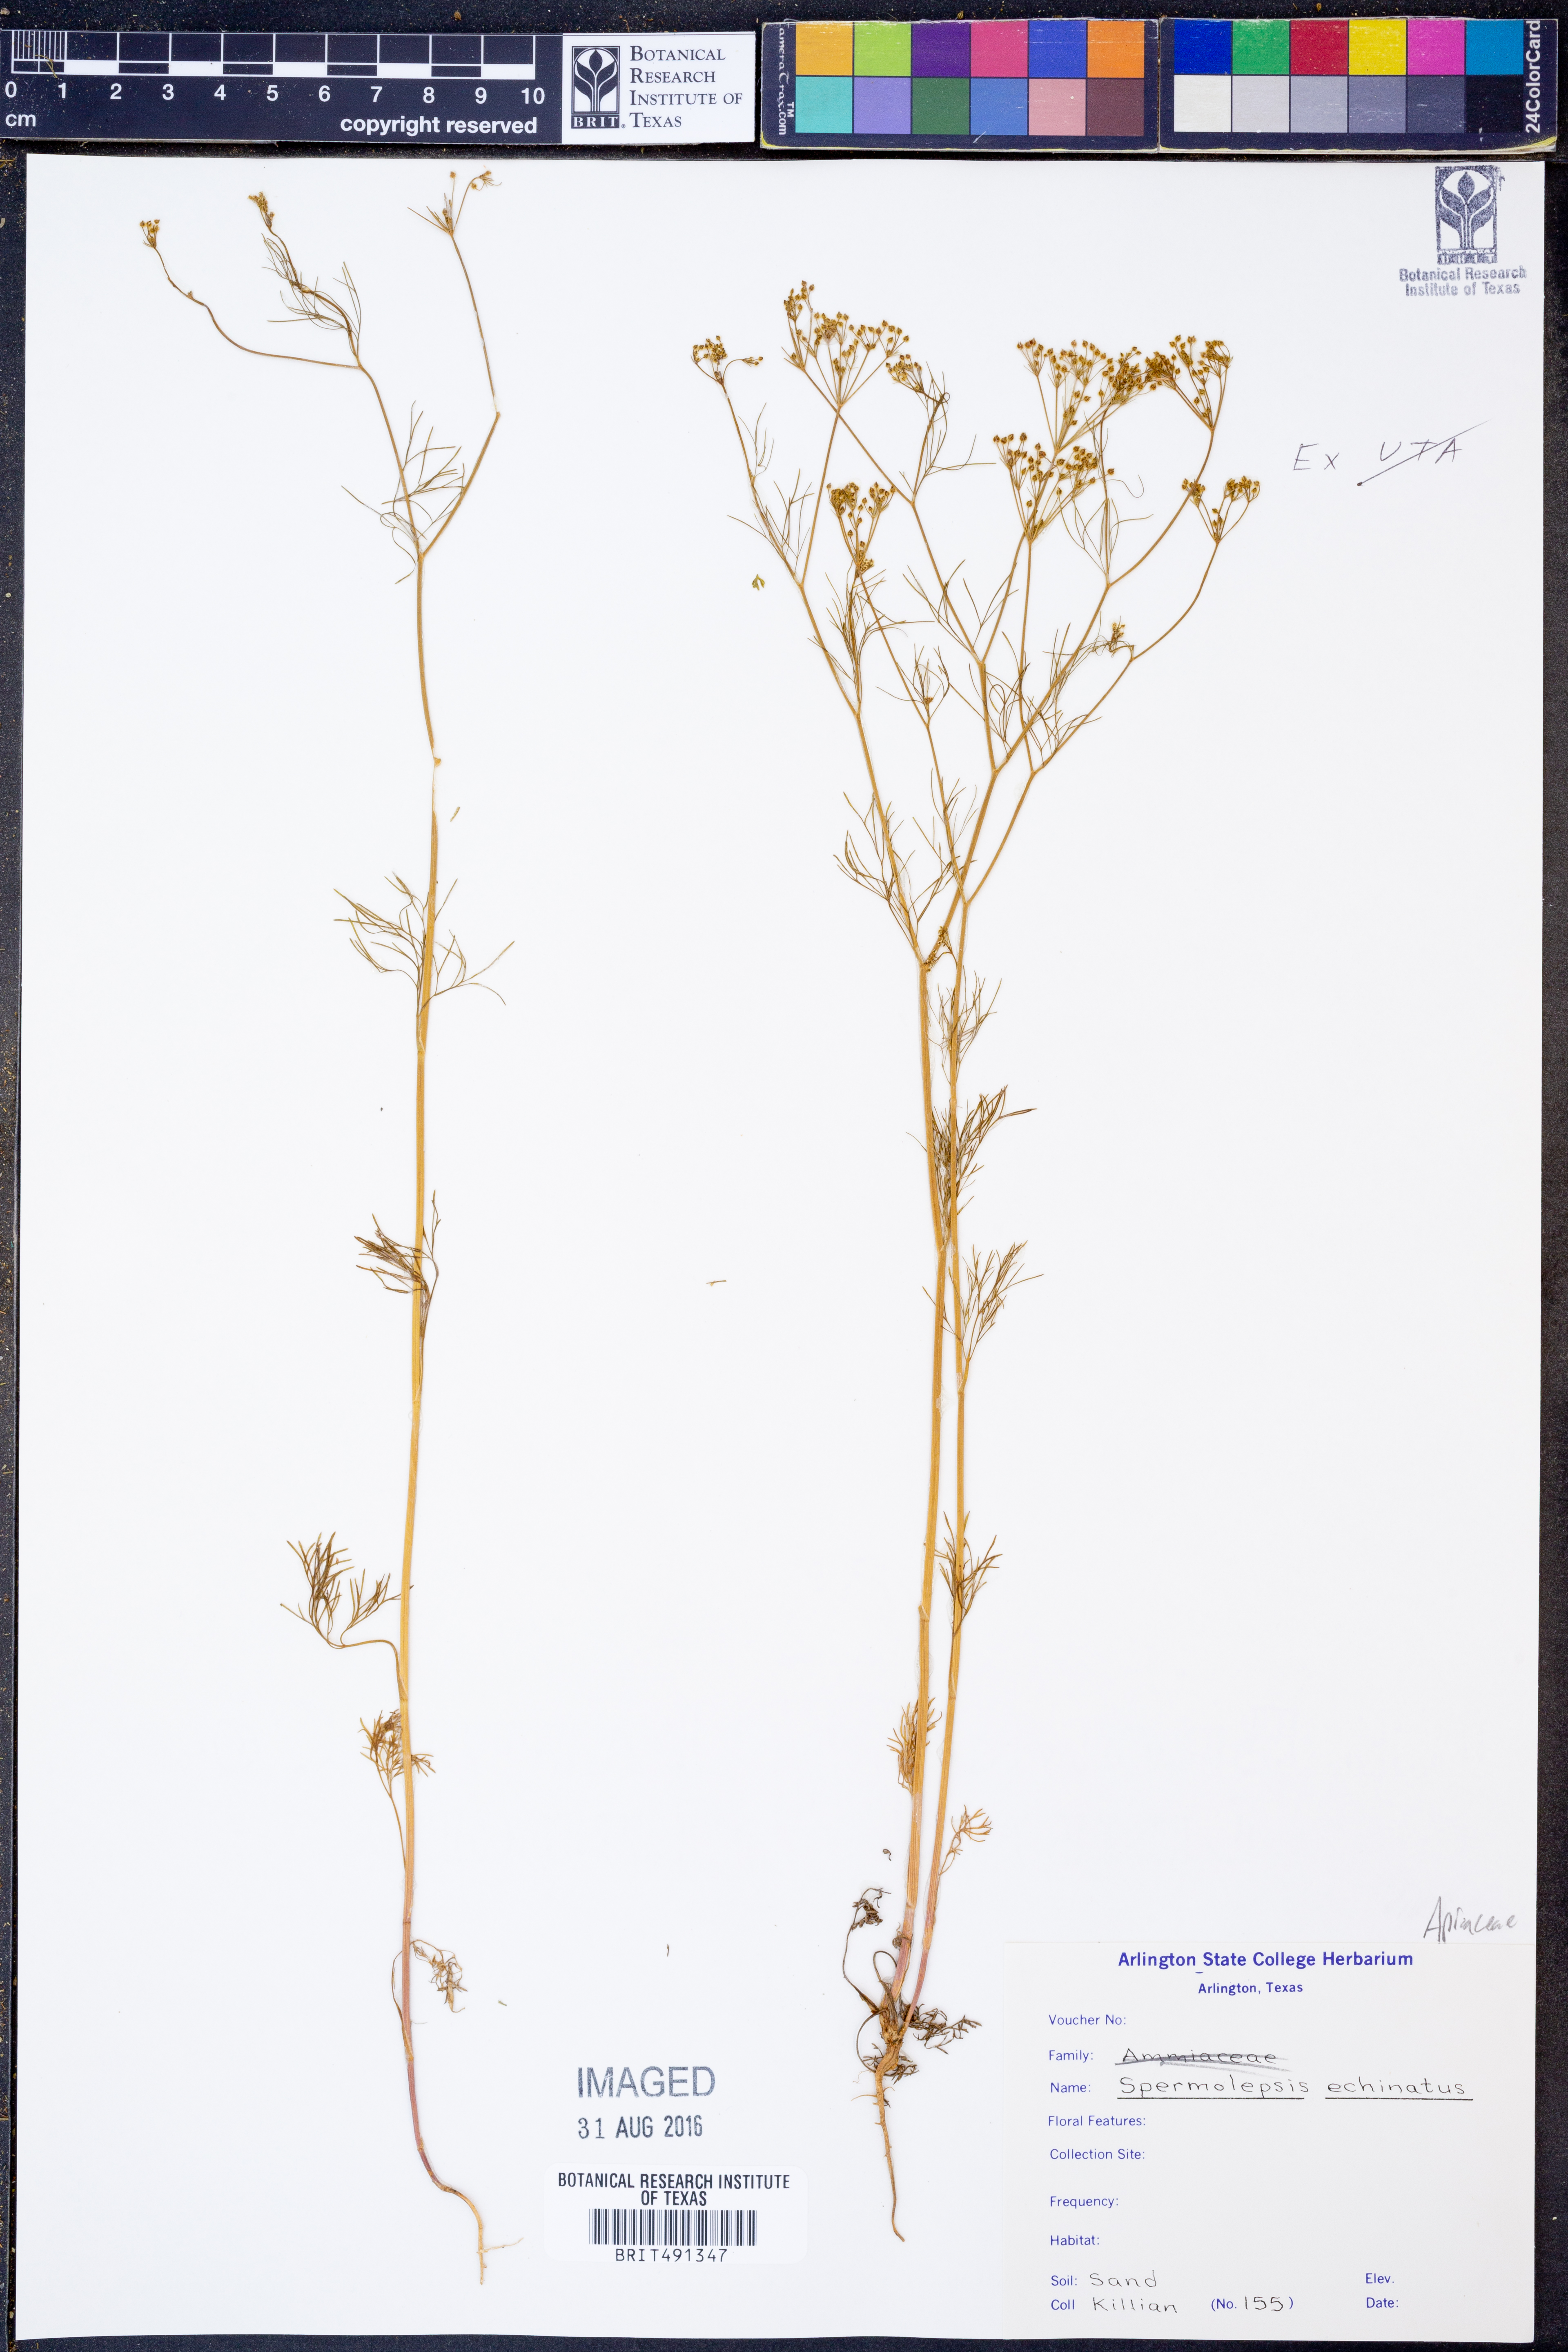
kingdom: Plantae
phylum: Tracheophyta
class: Magnoliopsida
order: Apiales
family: Apiaceae
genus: Spermolepis
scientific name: Spermolepis echinatus
